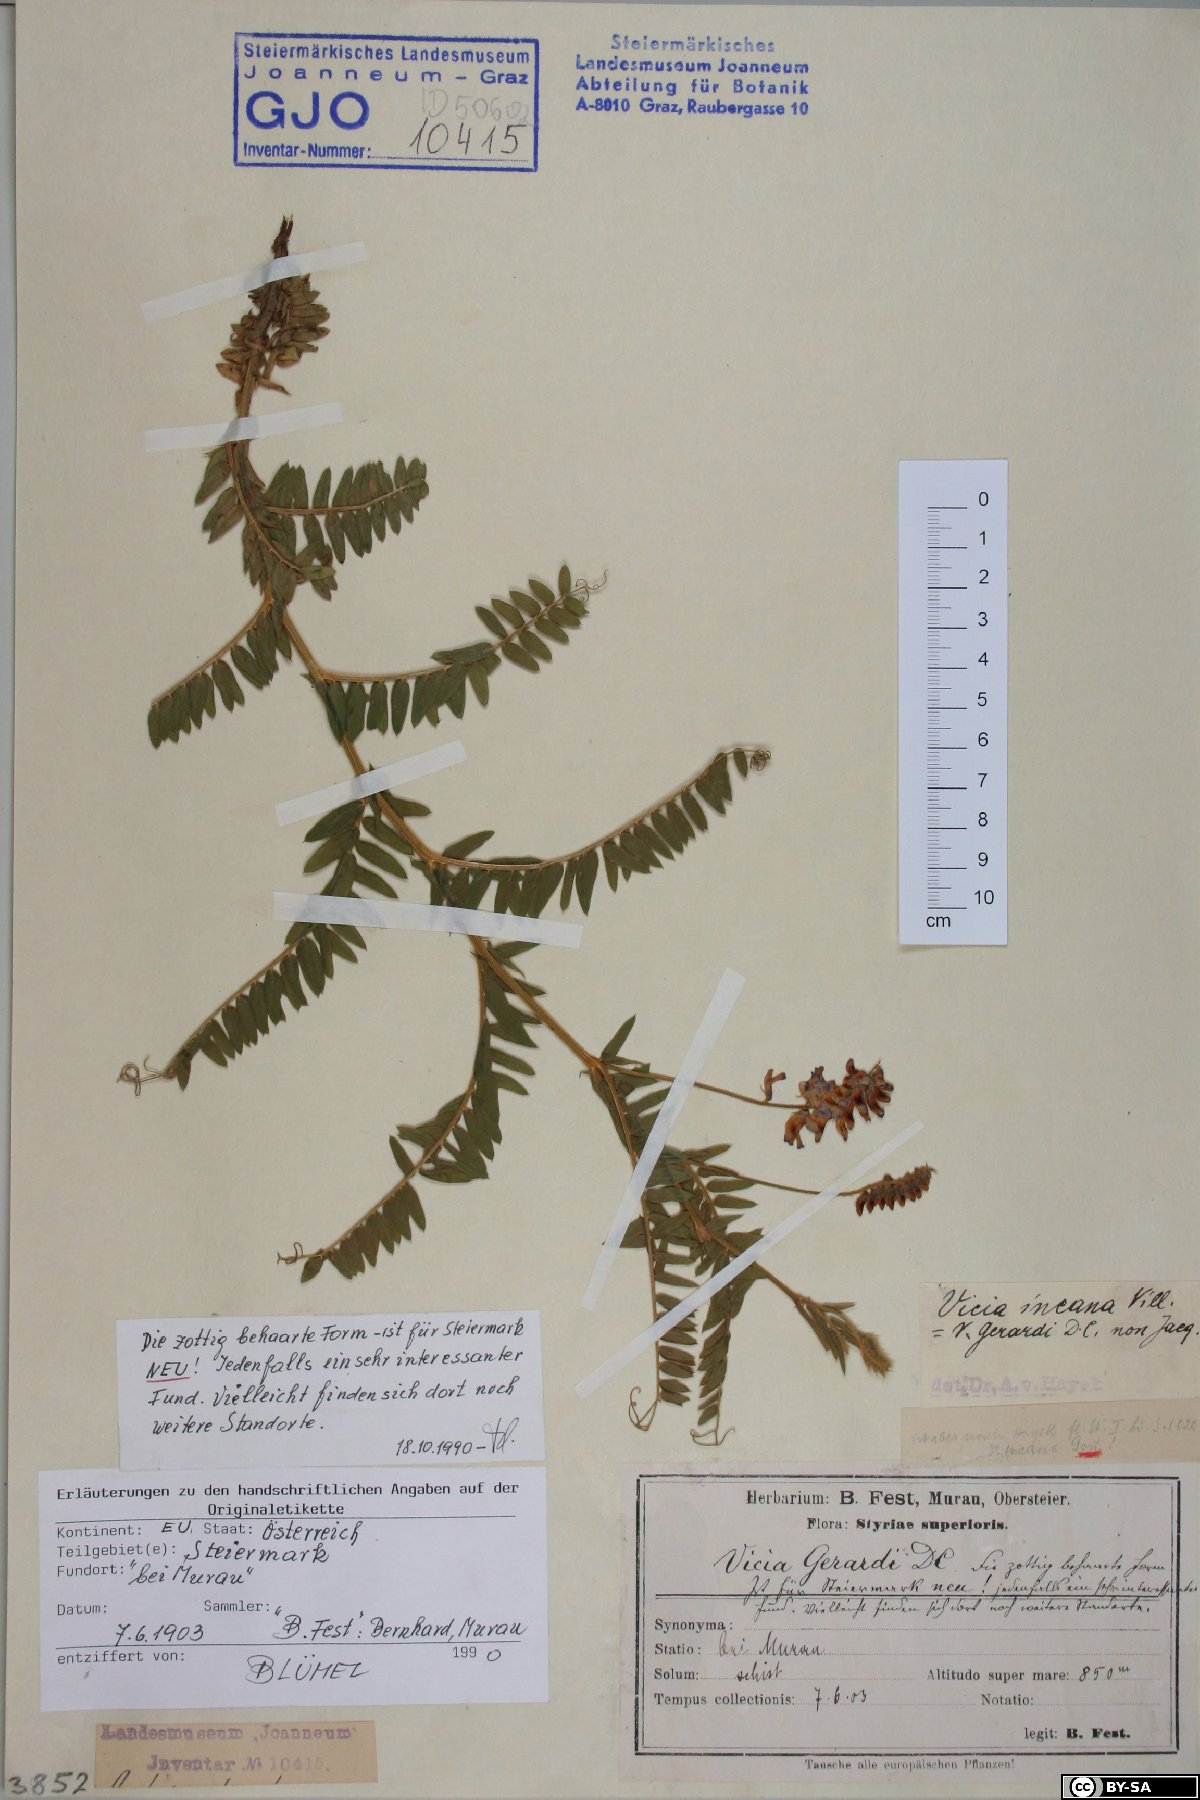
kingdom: Plantae
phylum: Tracheophyta
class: Magnoliopsida
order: Fabales
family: Fabaceae
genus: Vicia
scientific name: Vicia incana
